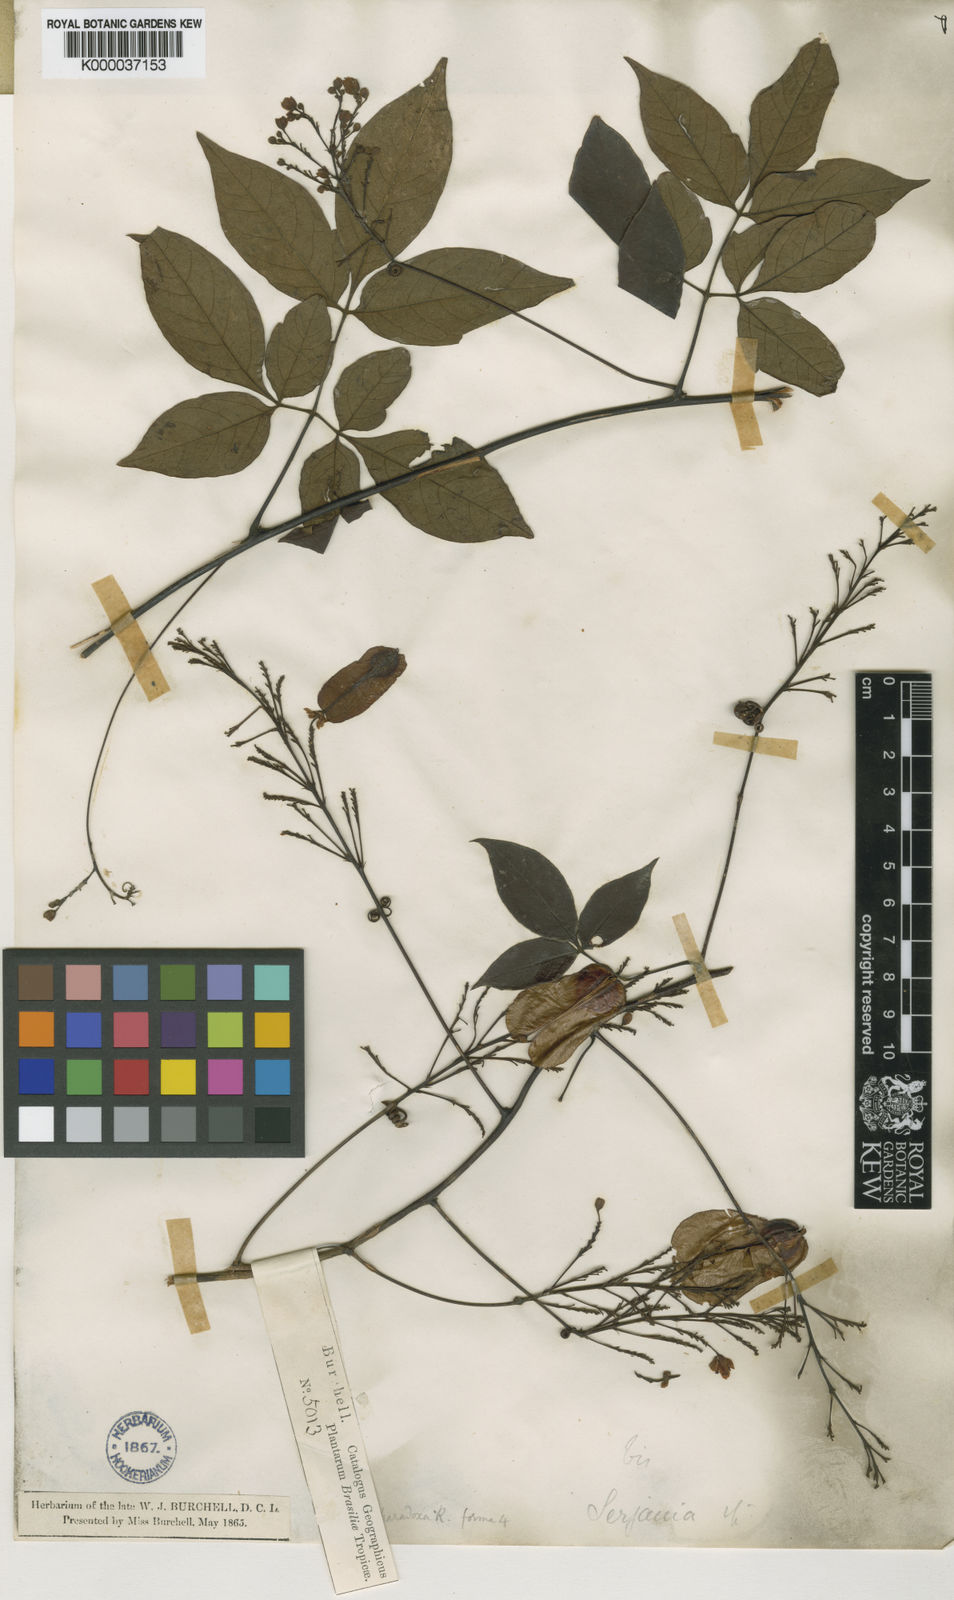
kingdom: Plantae
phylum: Tracheophyta
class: Magnoliopsida
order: Sapindales
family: Sapindaceae
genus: Serjania
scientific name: Serjania paradoxa
